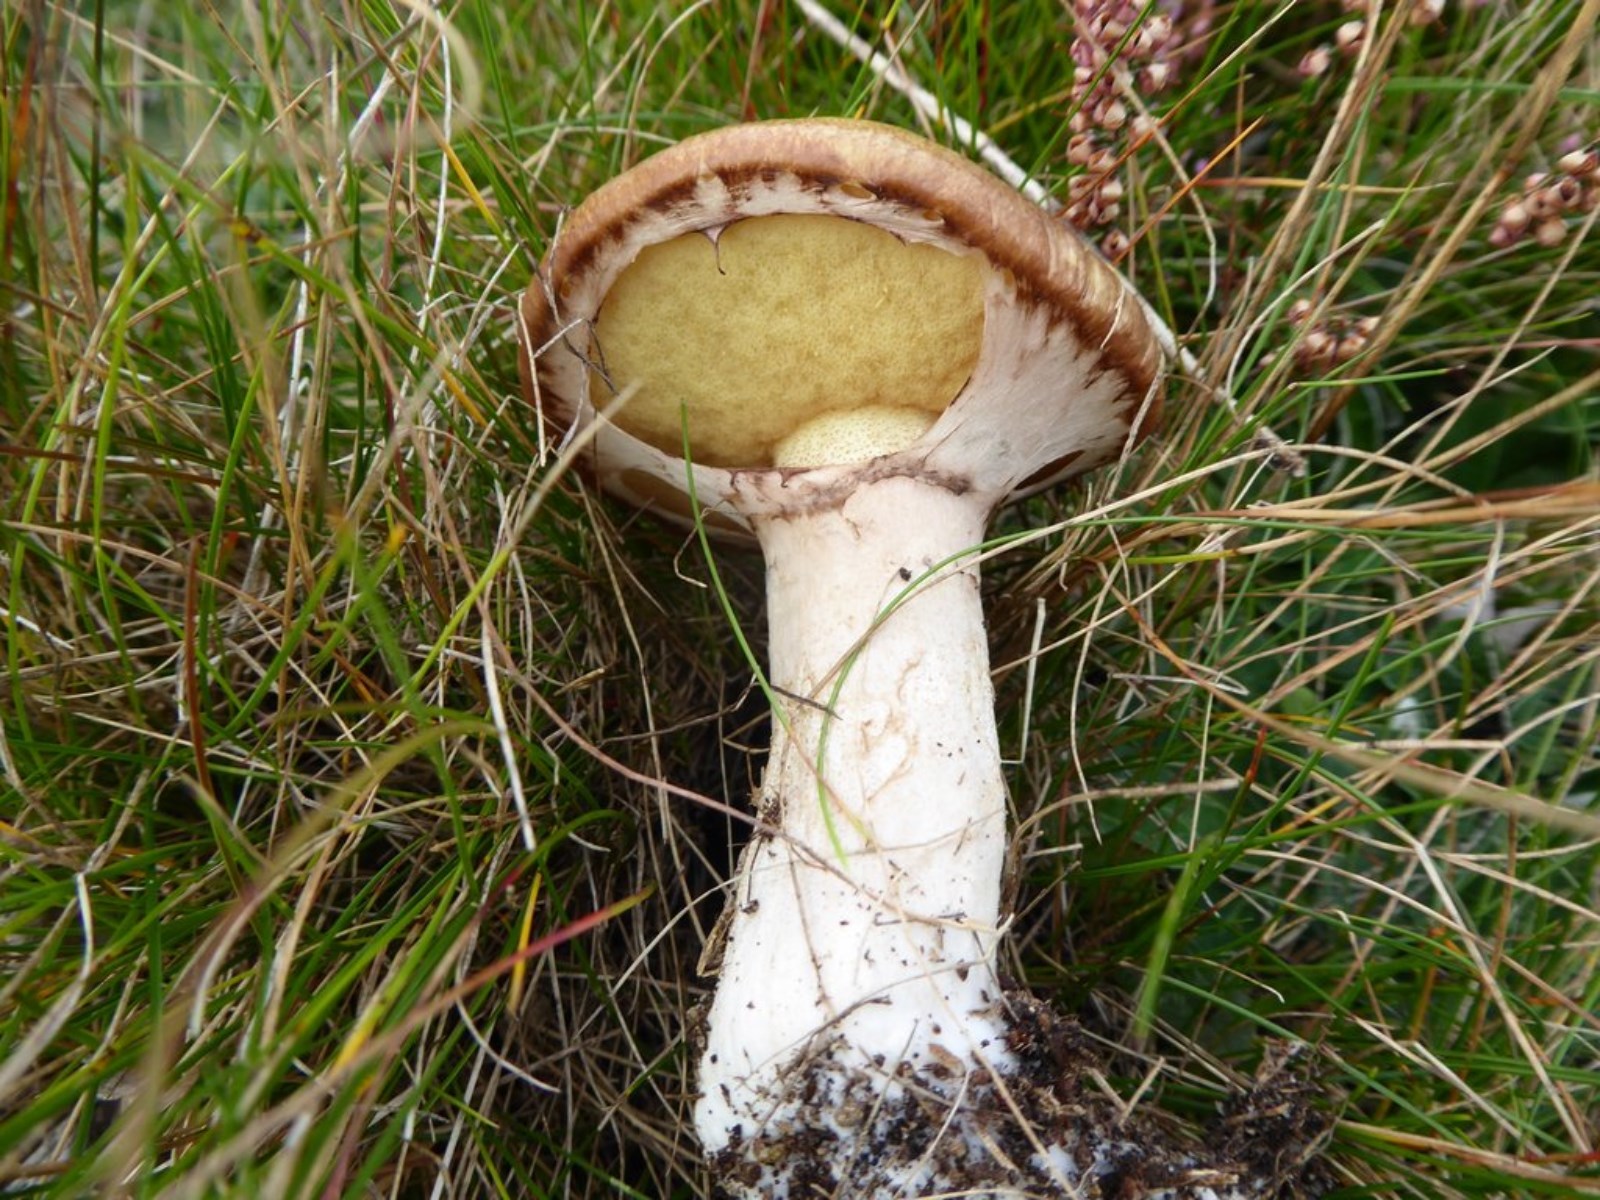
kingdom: Fungi
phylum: Basidiomycota
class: Agaricomycetes
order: Boletales
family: Suillaceae
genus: Suillus
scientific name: Suillus luteus
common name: brungul slimrørhat
